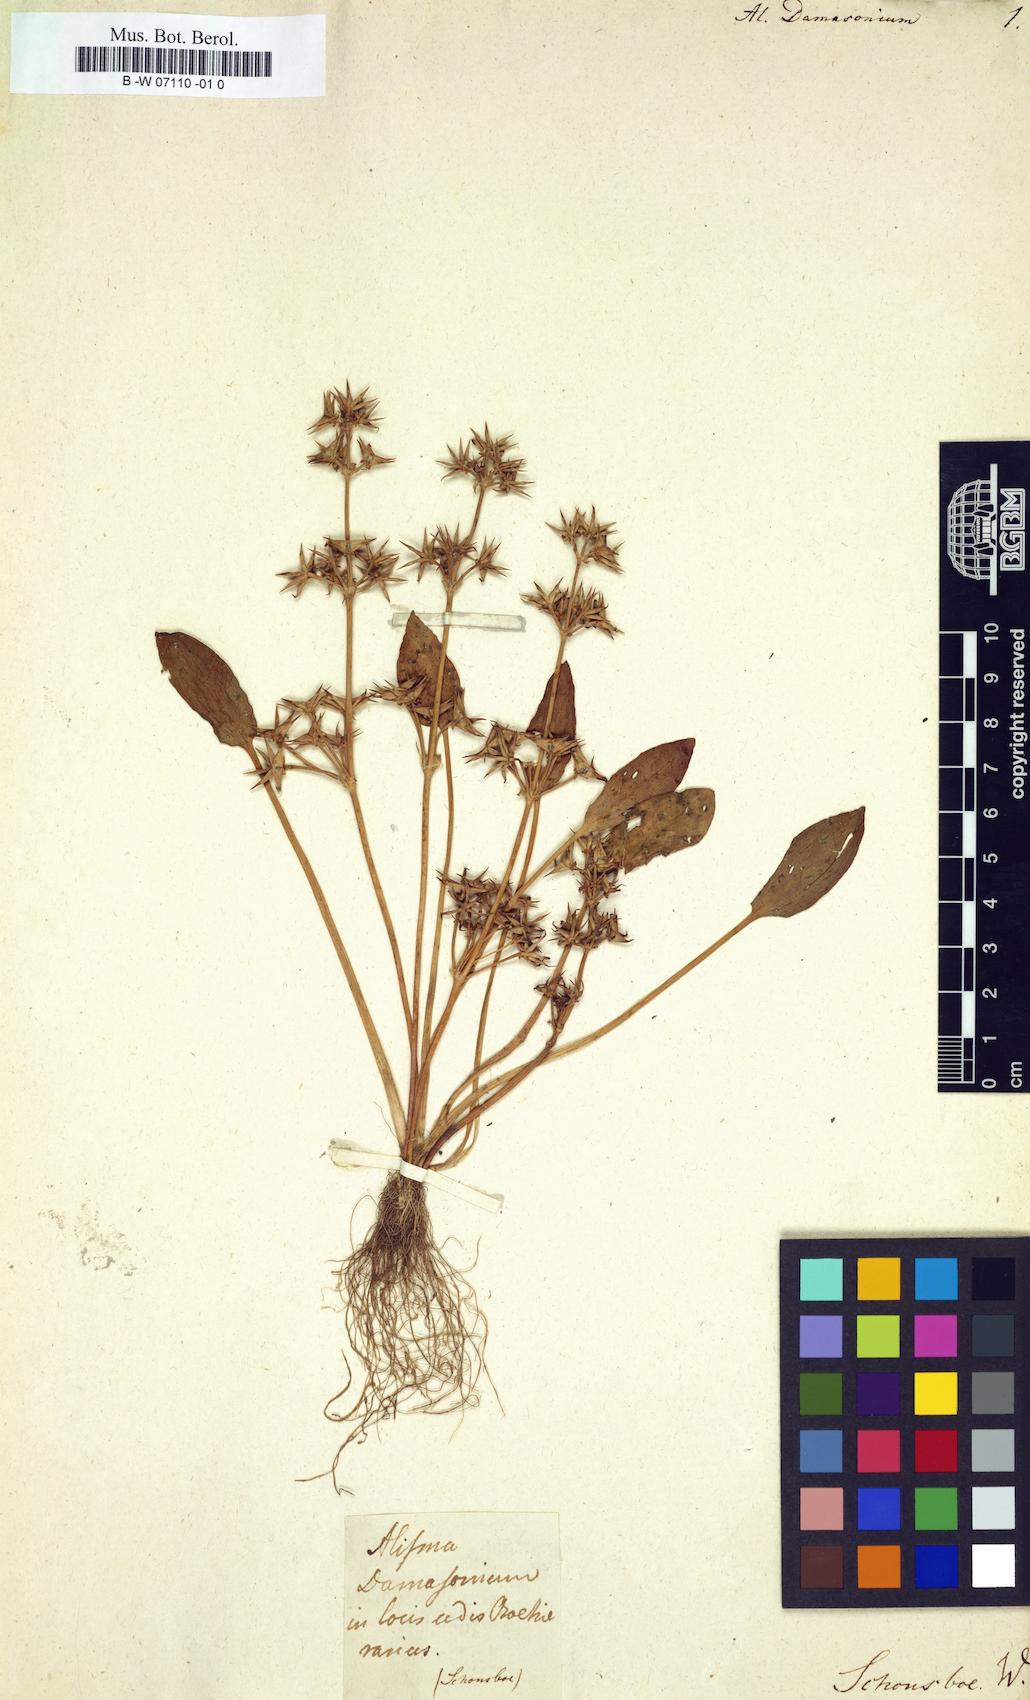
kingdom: Plantae
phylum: Tracheophyta
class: Liliopsida
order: Alismatales
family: Alismataceae
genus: Alisma
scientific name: Alisma damasonium
